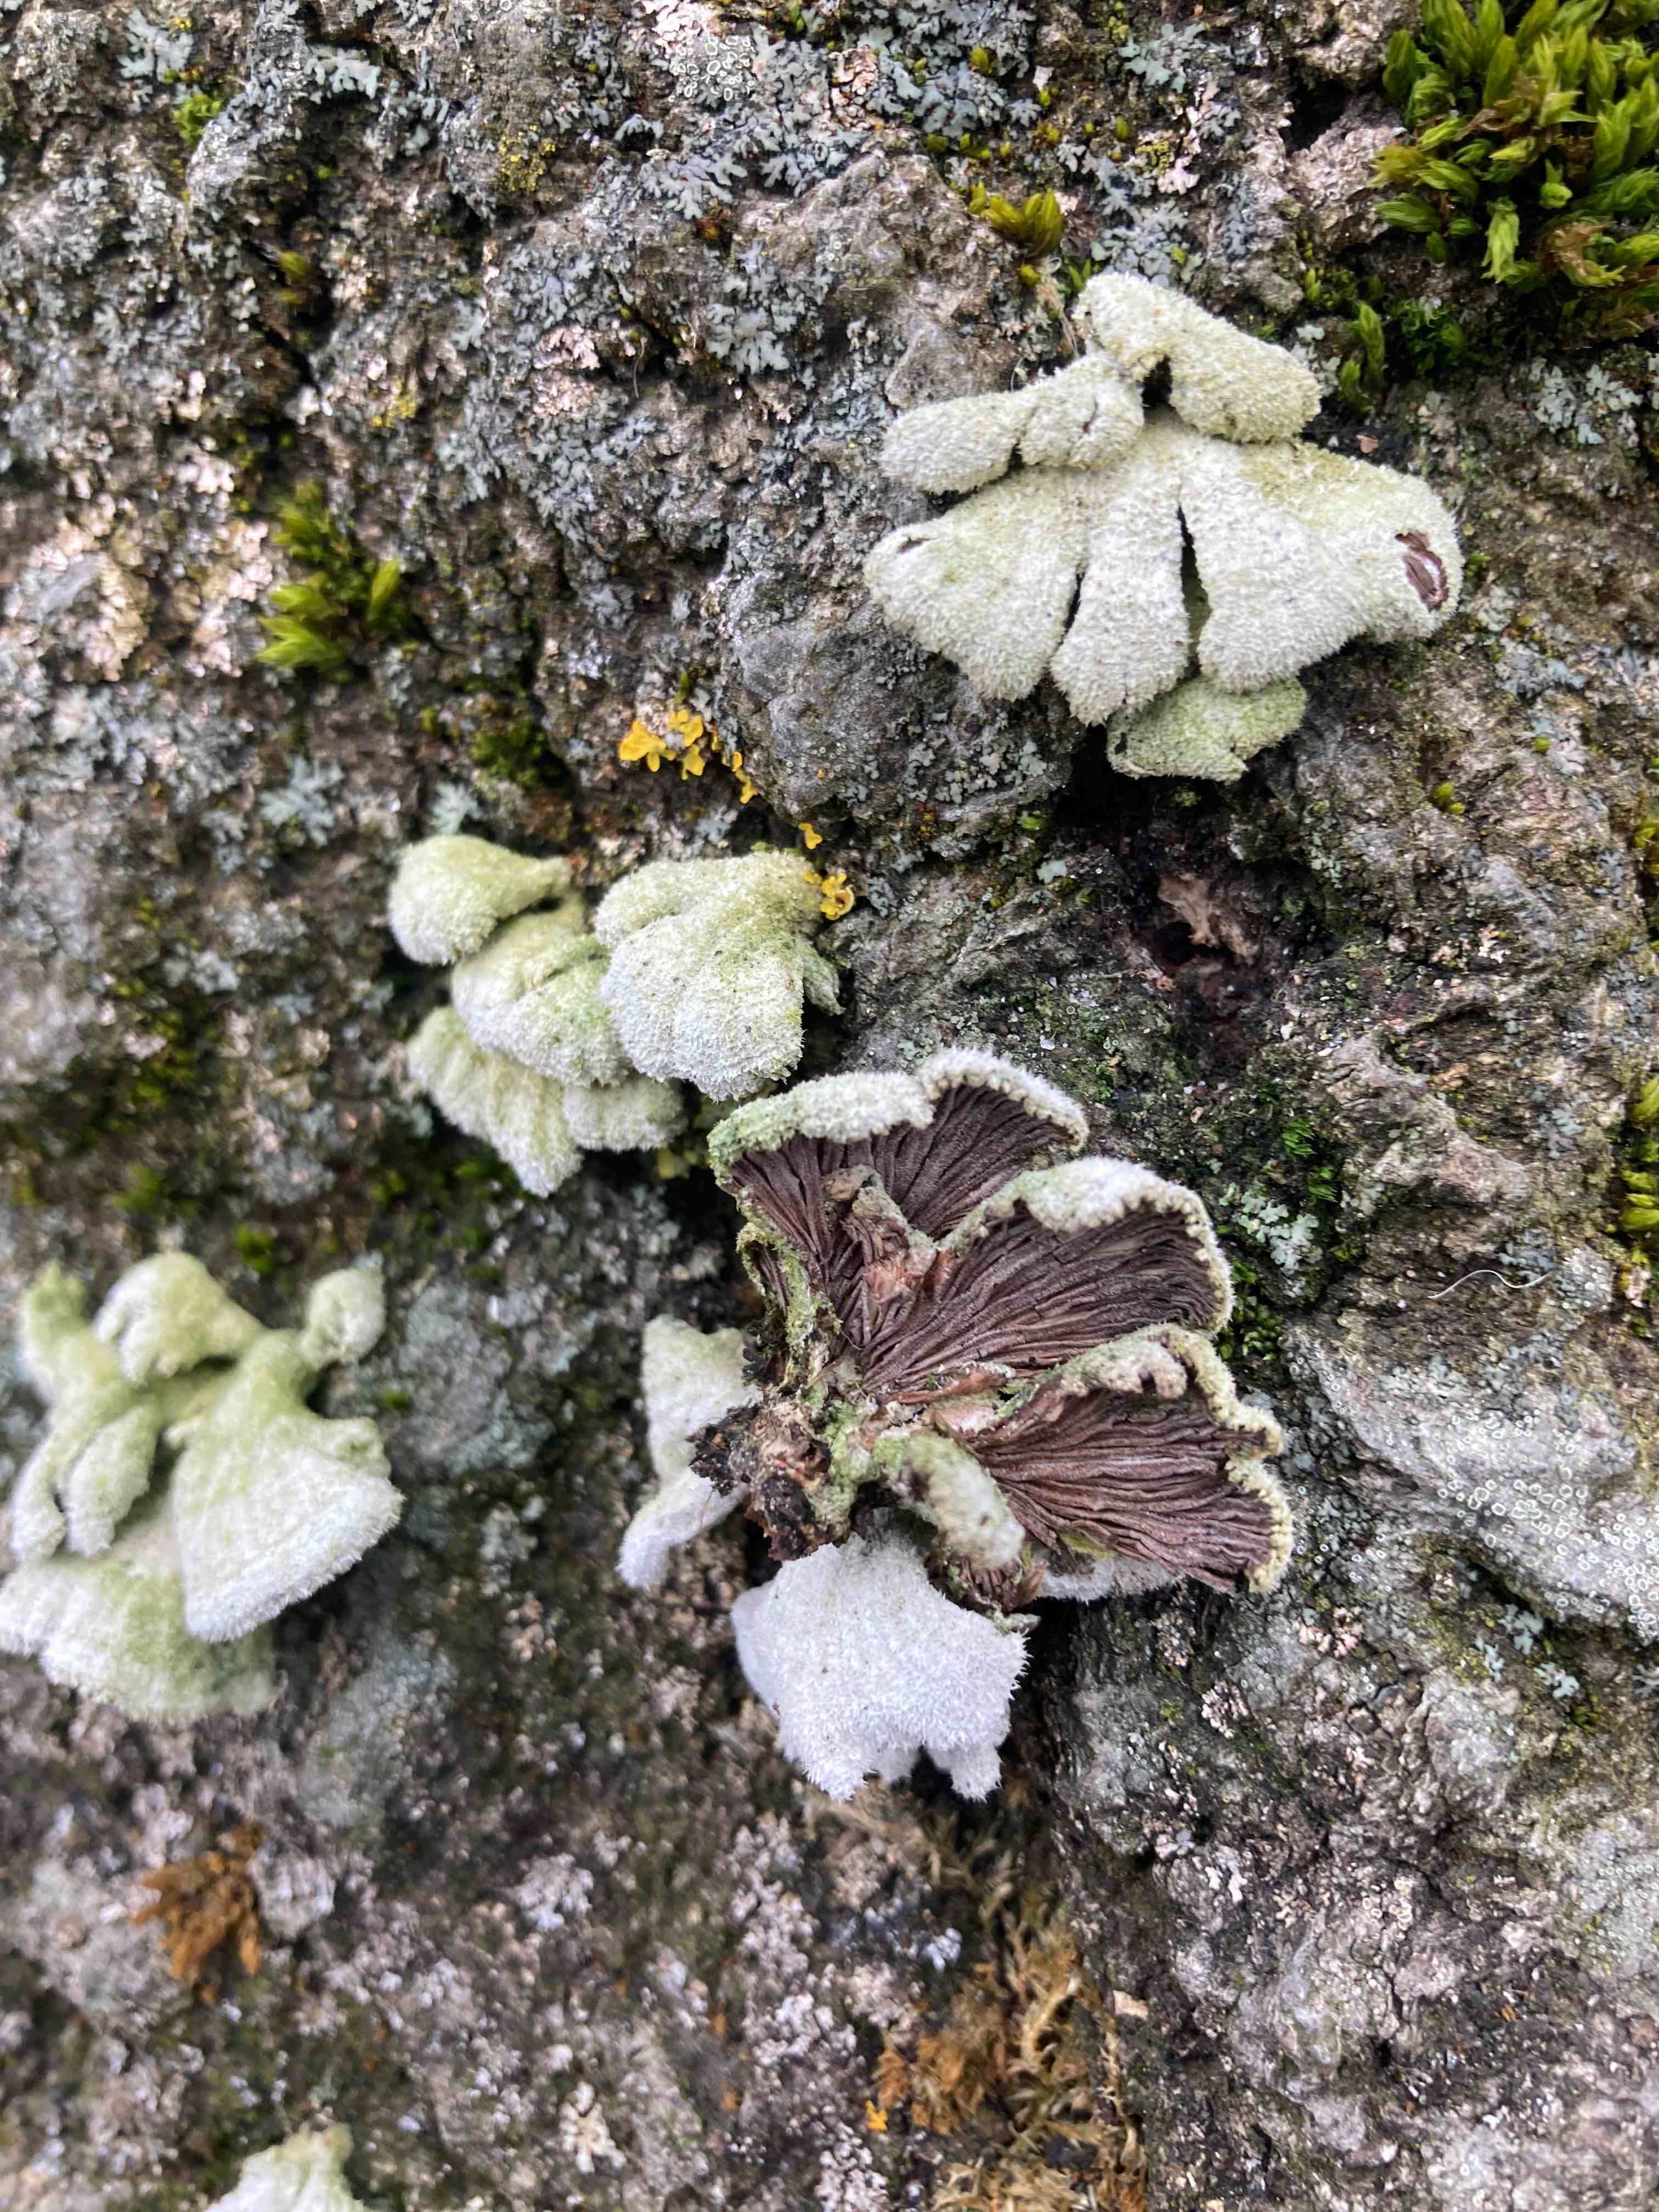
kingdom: Fungi
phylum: Basidiomycota
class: Agaricomycetes
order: Agaricales
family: Schizophyllaceae
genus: Schizophyllum
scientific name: Schizophyllum commune
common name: kløvblad
